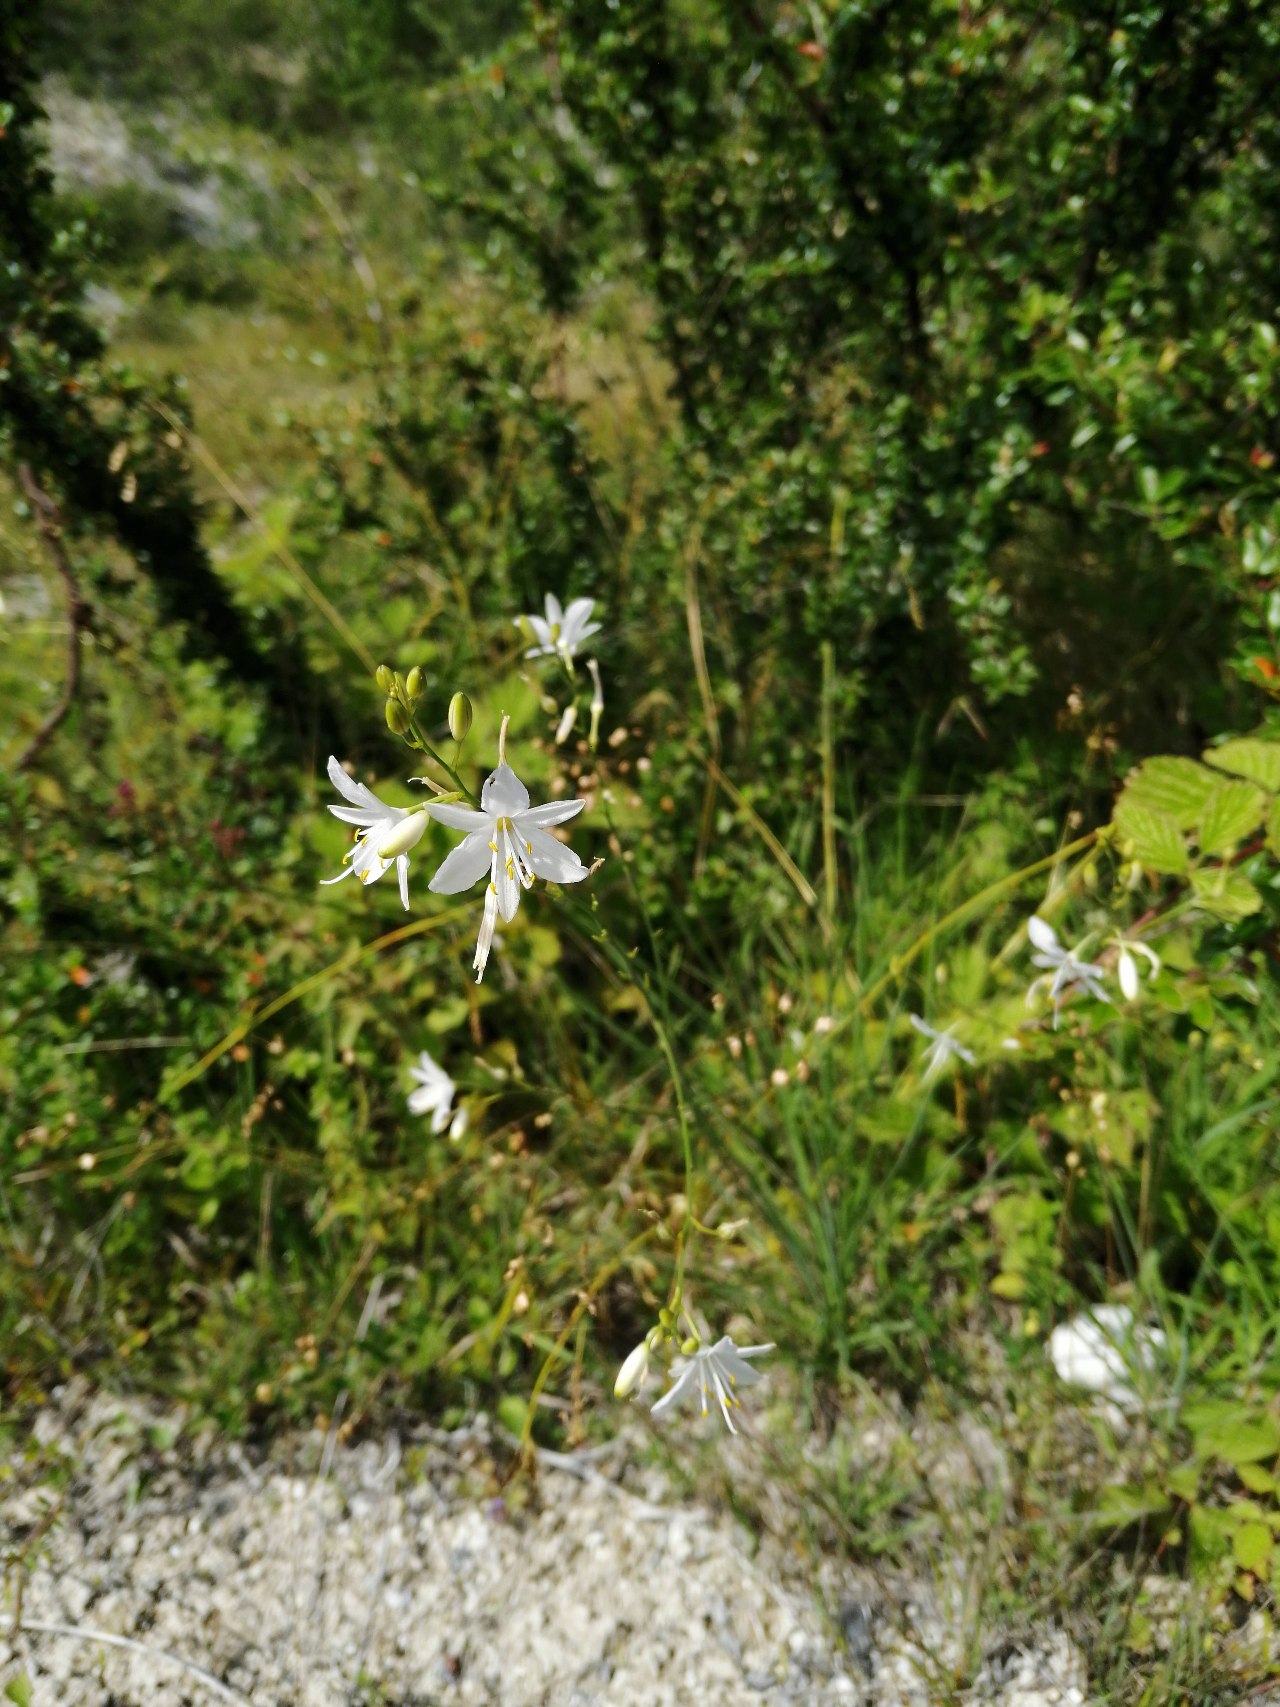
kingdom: Plantae
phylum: Tracheophyta
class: Liliopsida
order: Asparagales
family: Asparagaceae
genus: Anthericum
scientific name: Anthericum ramosum
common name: Grenet edderkopurt
